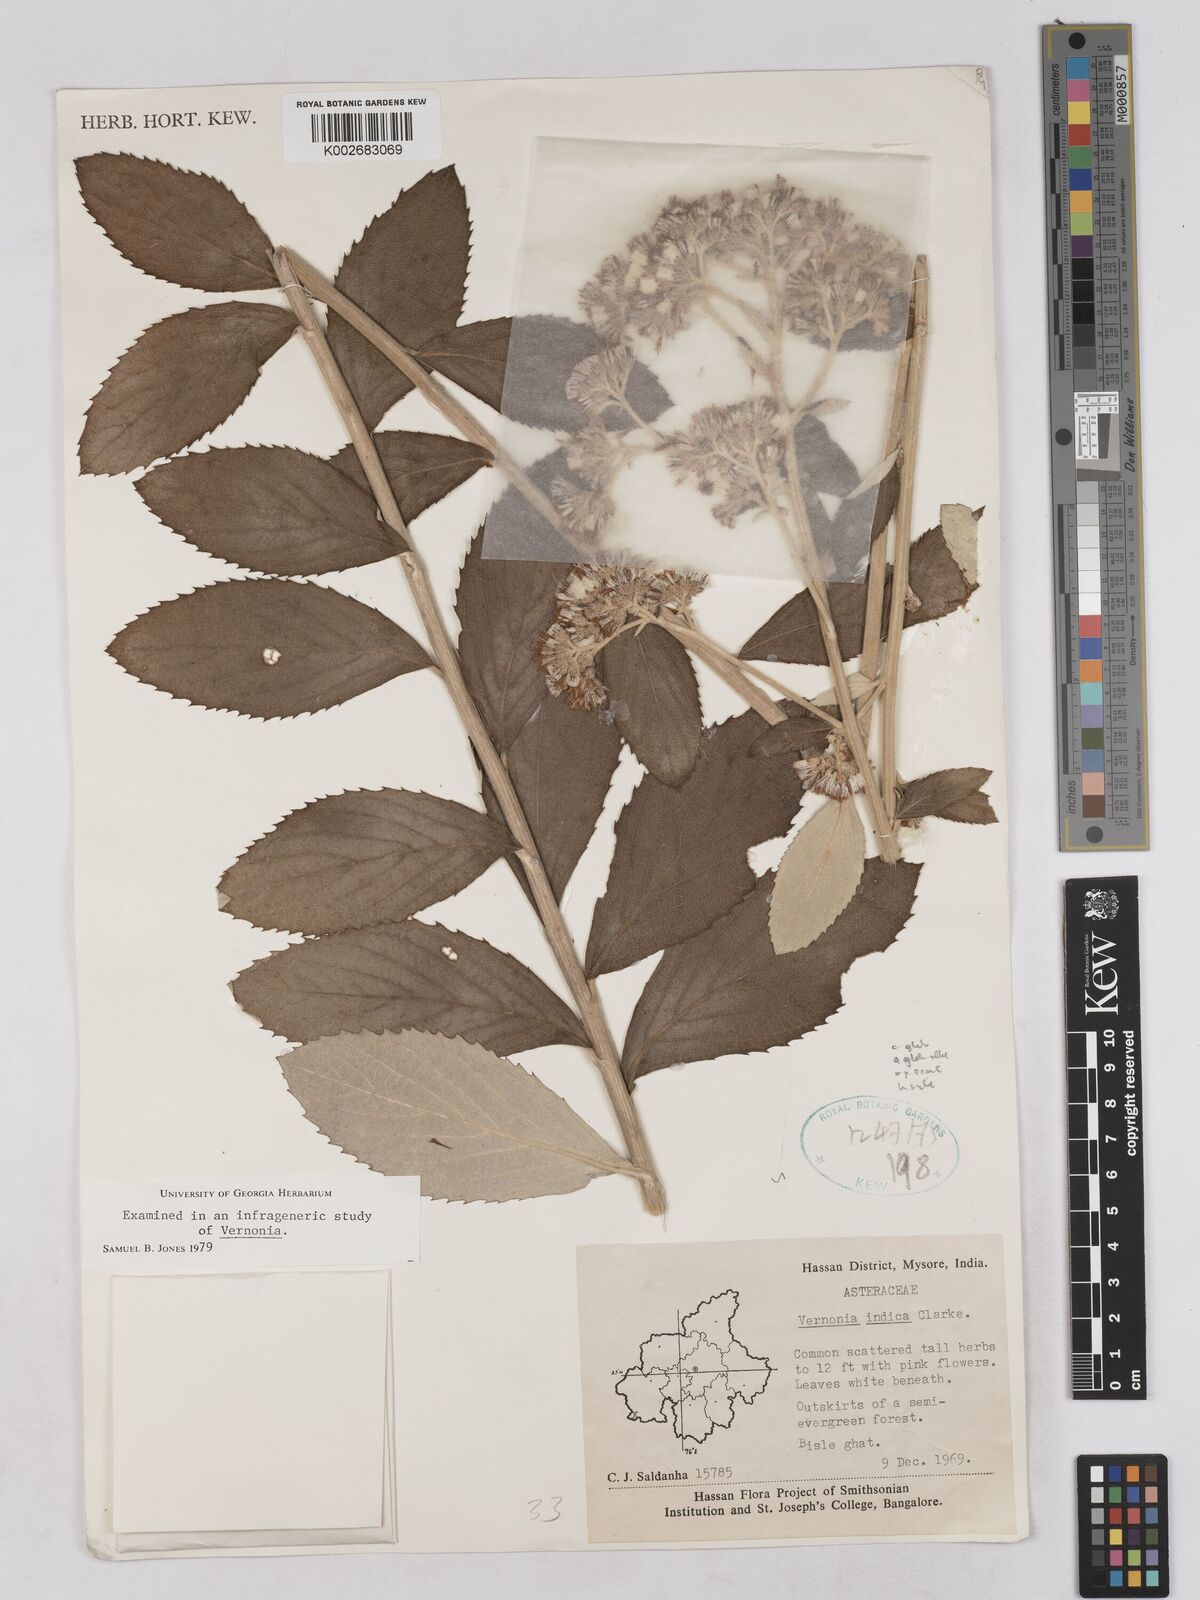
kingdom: Plantae
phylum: Tracheophyta
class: Magnoliopsida
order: Asterales
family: Asteraceae
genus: Acilepis
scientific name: Acilepis dendigulensis
